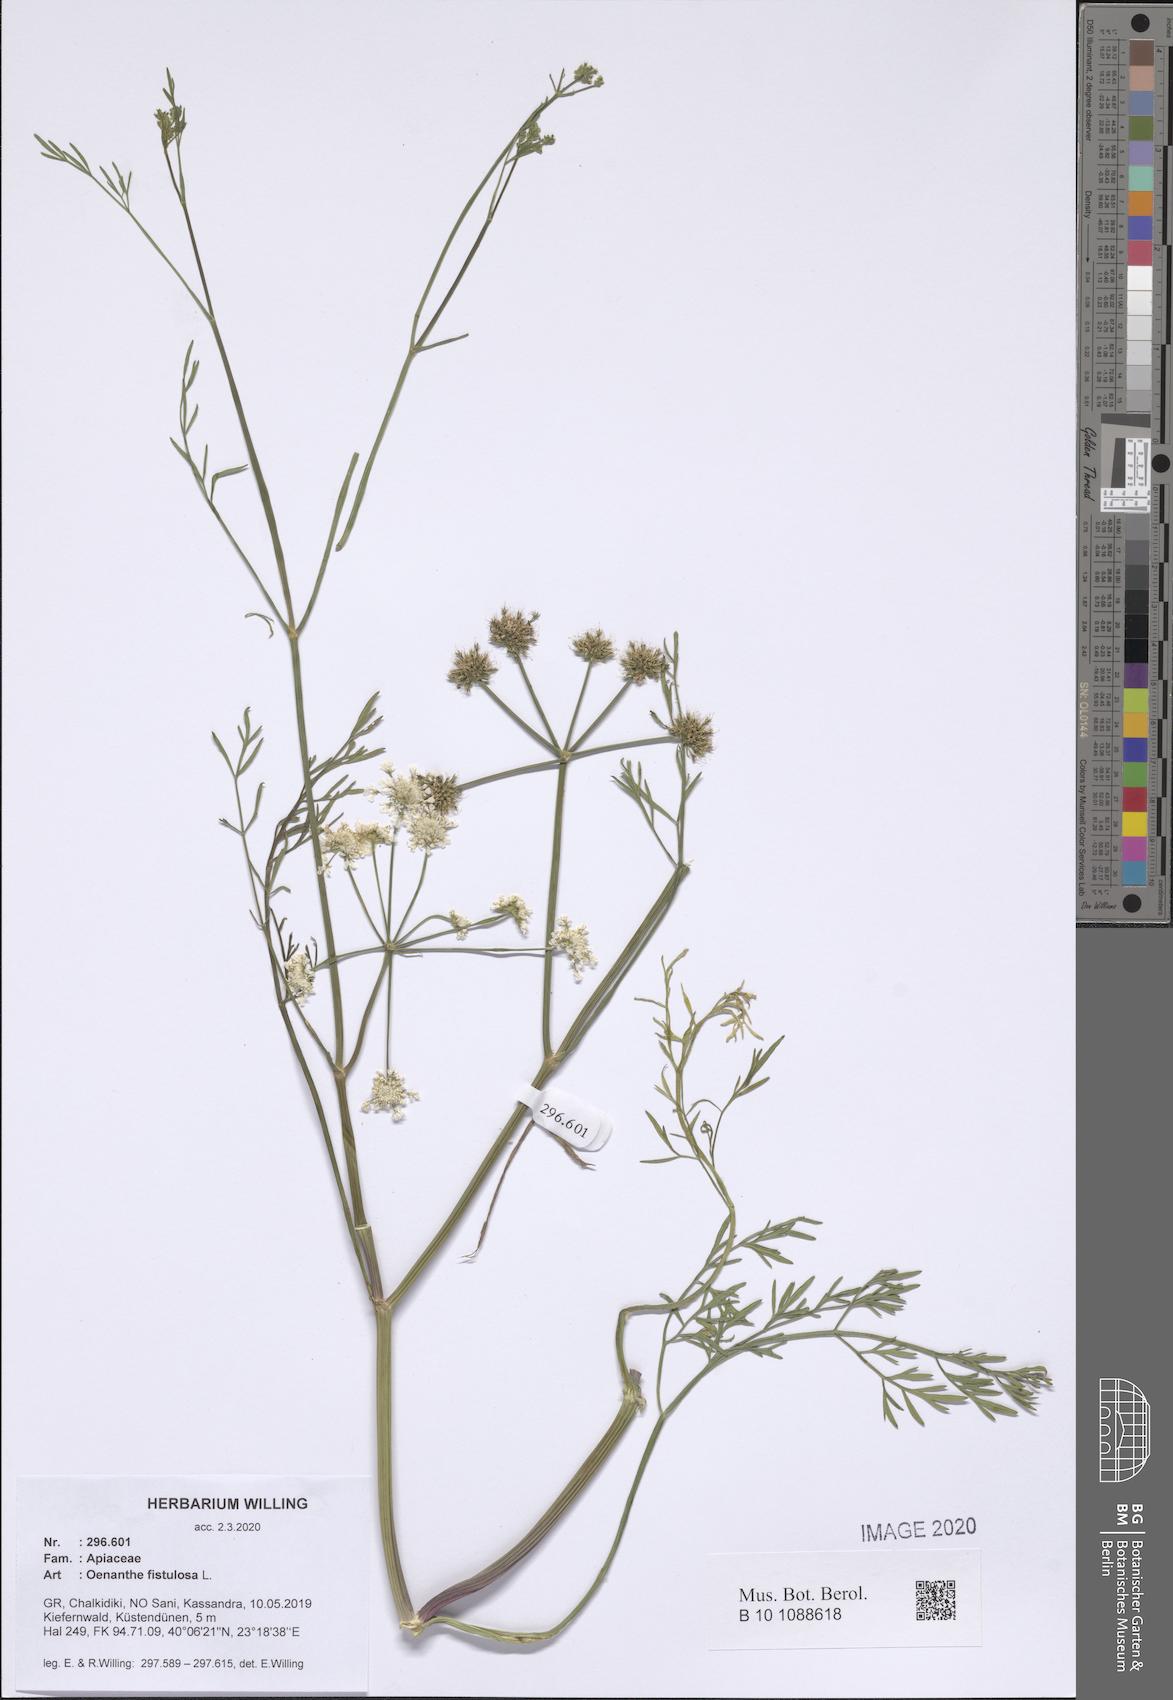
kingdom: Plantae
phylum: Tracheophyta
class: Magnoliopsida
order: Apiales
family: Apiaceae
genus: Oenanthe
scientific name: Oenanthe fistulosa
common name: Tubular water-dropwort
